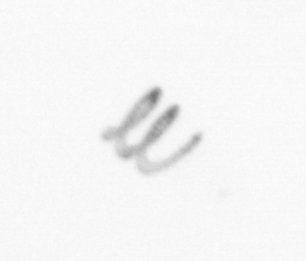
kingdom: Chromista
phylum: Ochrophyta
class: Bacillariophyceae
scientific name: Bacillariophyceae
